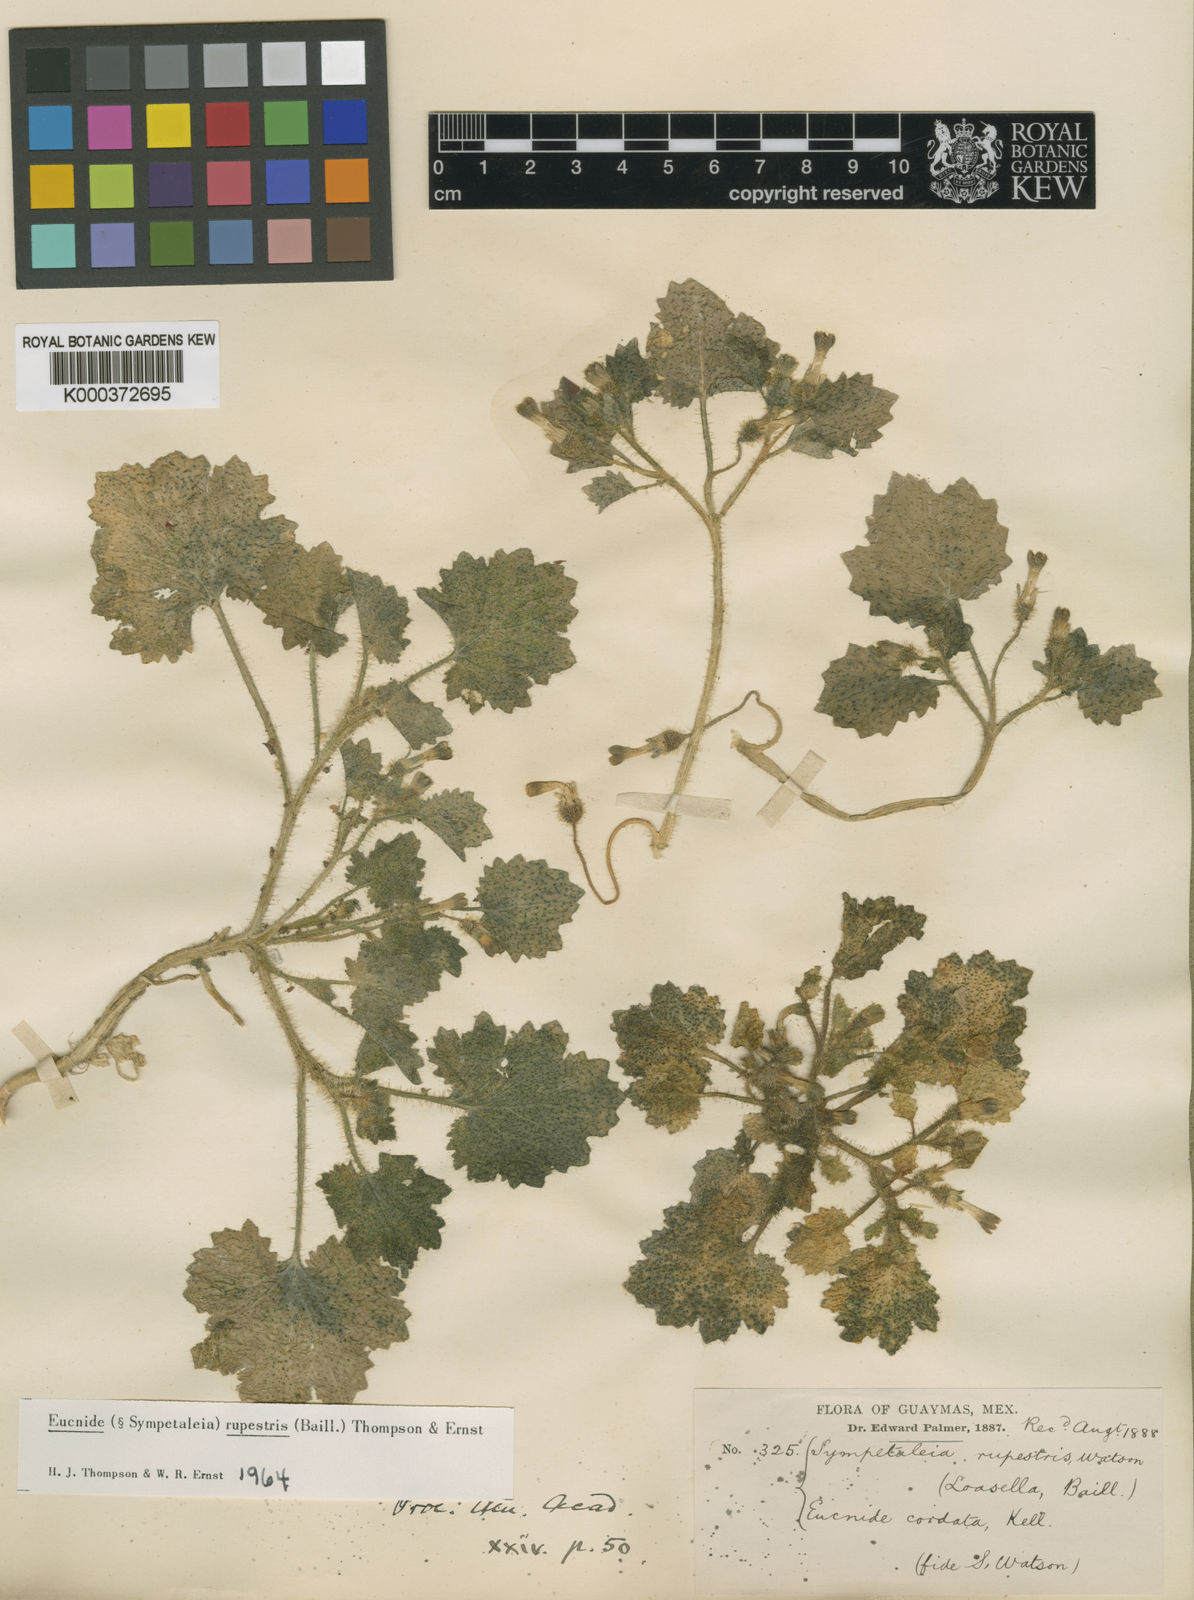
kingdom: Plantae
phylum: Tracheophyta
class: Magnoliopsida
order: Cornales
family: Loasaceae
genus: Eucnide
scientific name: Eucnide rupestris
